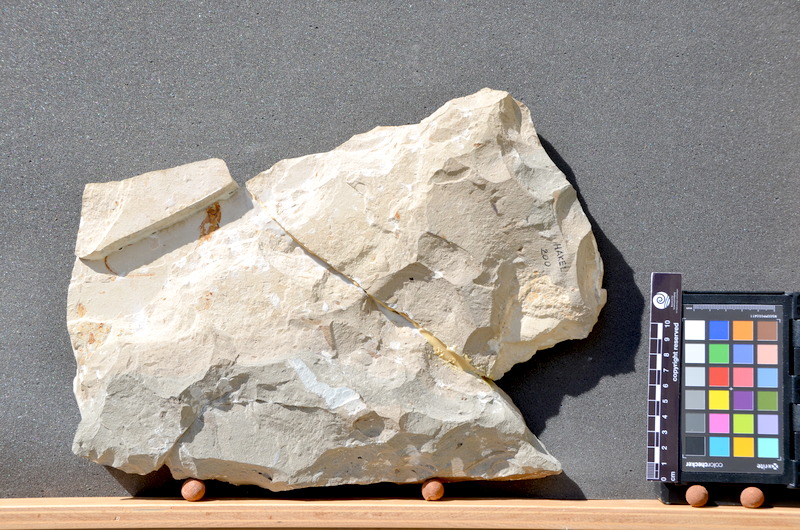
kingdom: Animalia
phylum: Chordata
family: Pycnodontes
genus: Palaeobalistum
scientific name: Palaeobalistum goedelii
